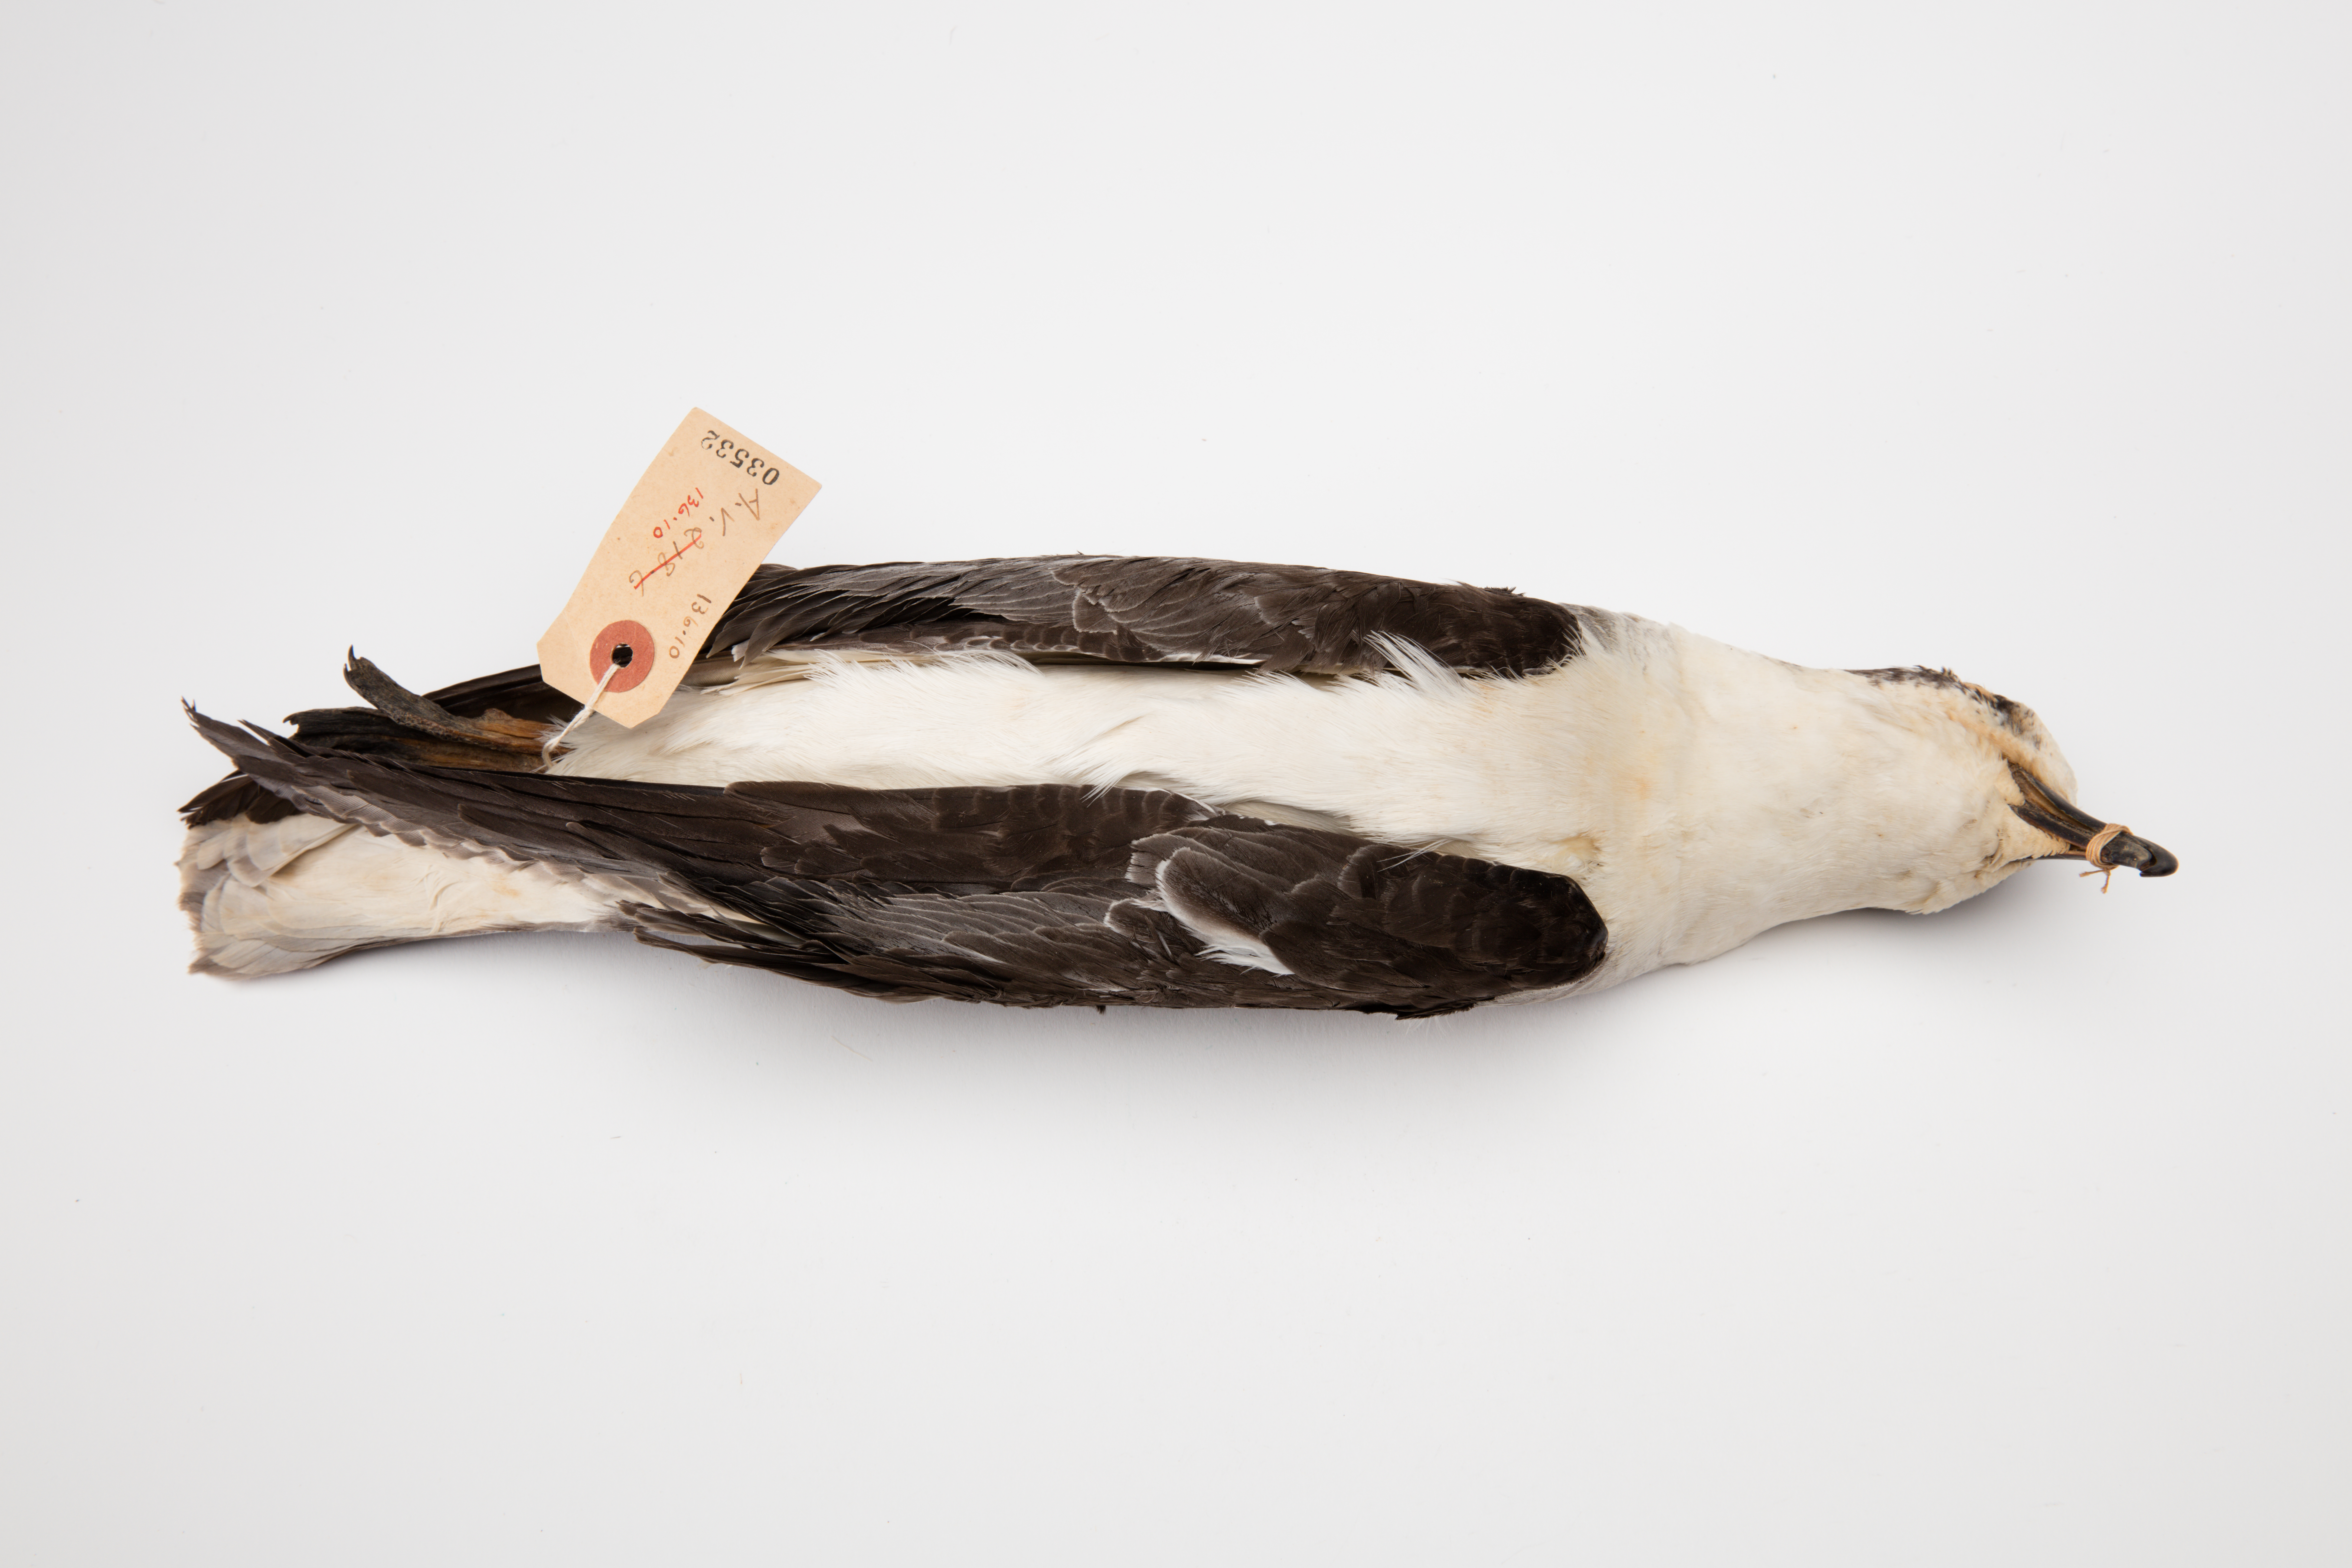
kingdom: Animalia
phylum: Chordata
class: Aves
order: Procellariiformes
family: Procellariidae
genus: Pterodroma
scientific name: Pterodroma cervicalis
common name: White-necked petrel
